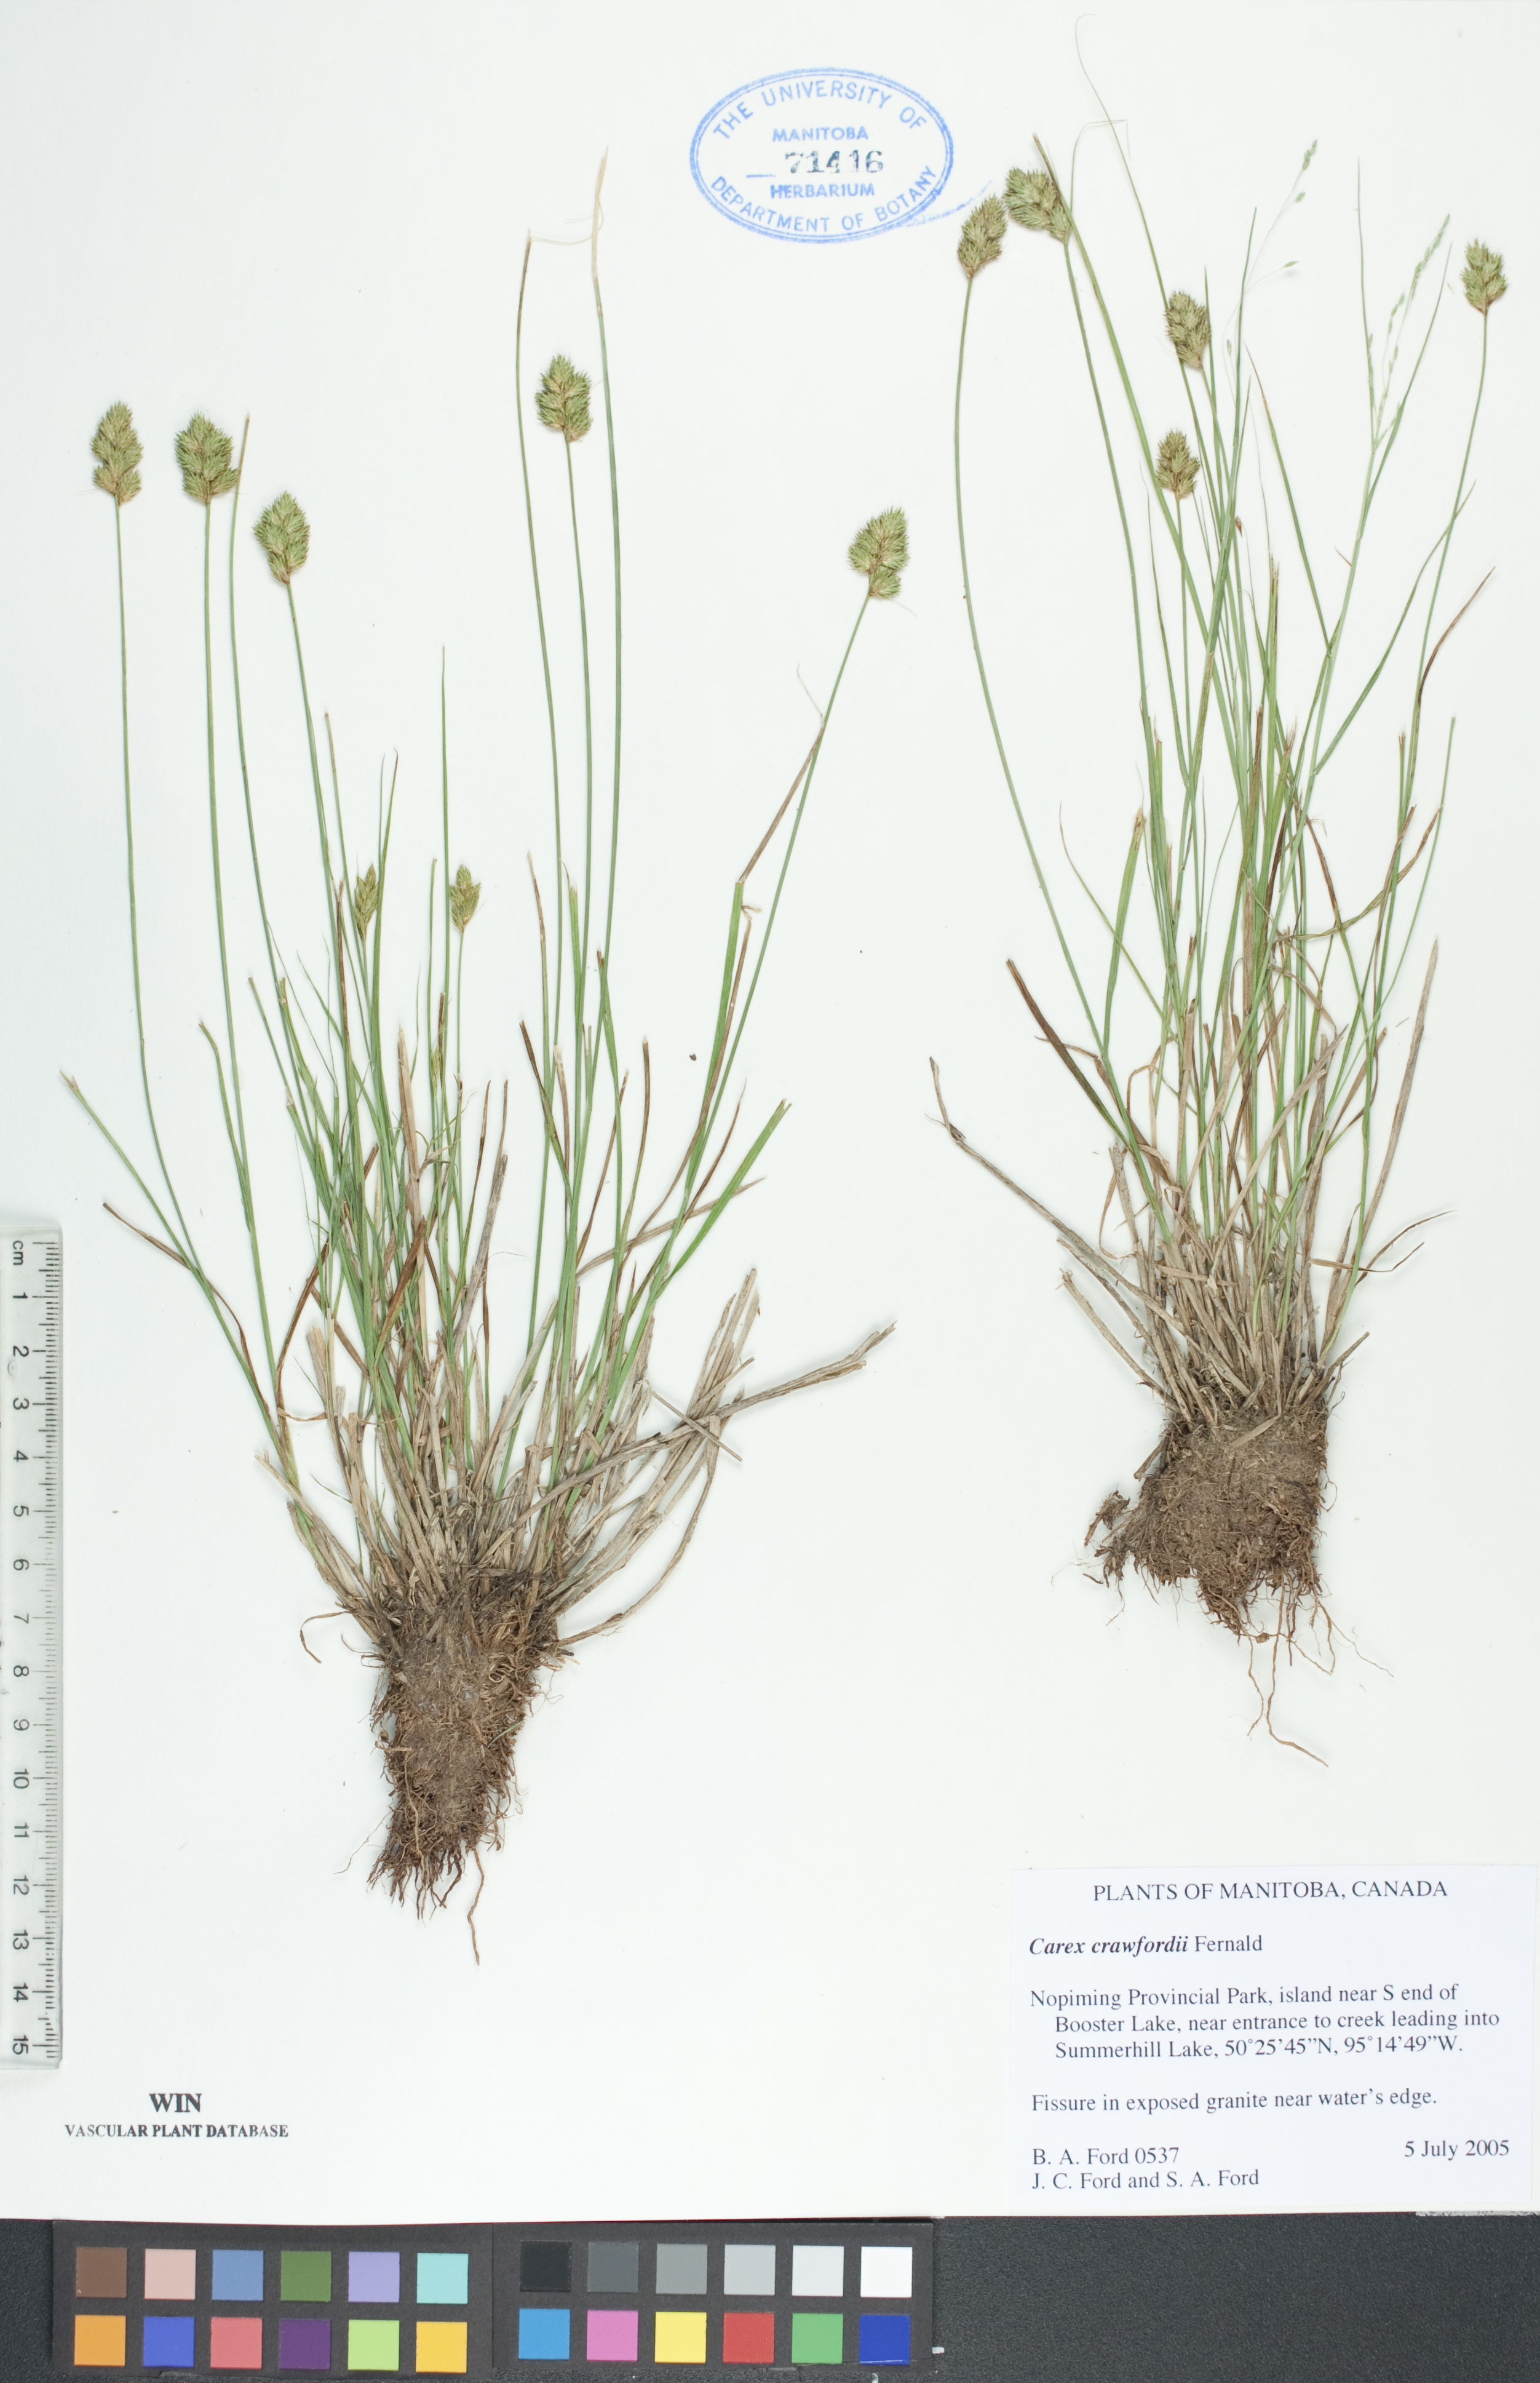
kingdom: Plantae
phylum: Tracheophyta
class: Liliopsida
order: Poales
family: Cyperaceae
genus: Carex
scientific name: Carex crawfordii
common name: Crawford's sedge
